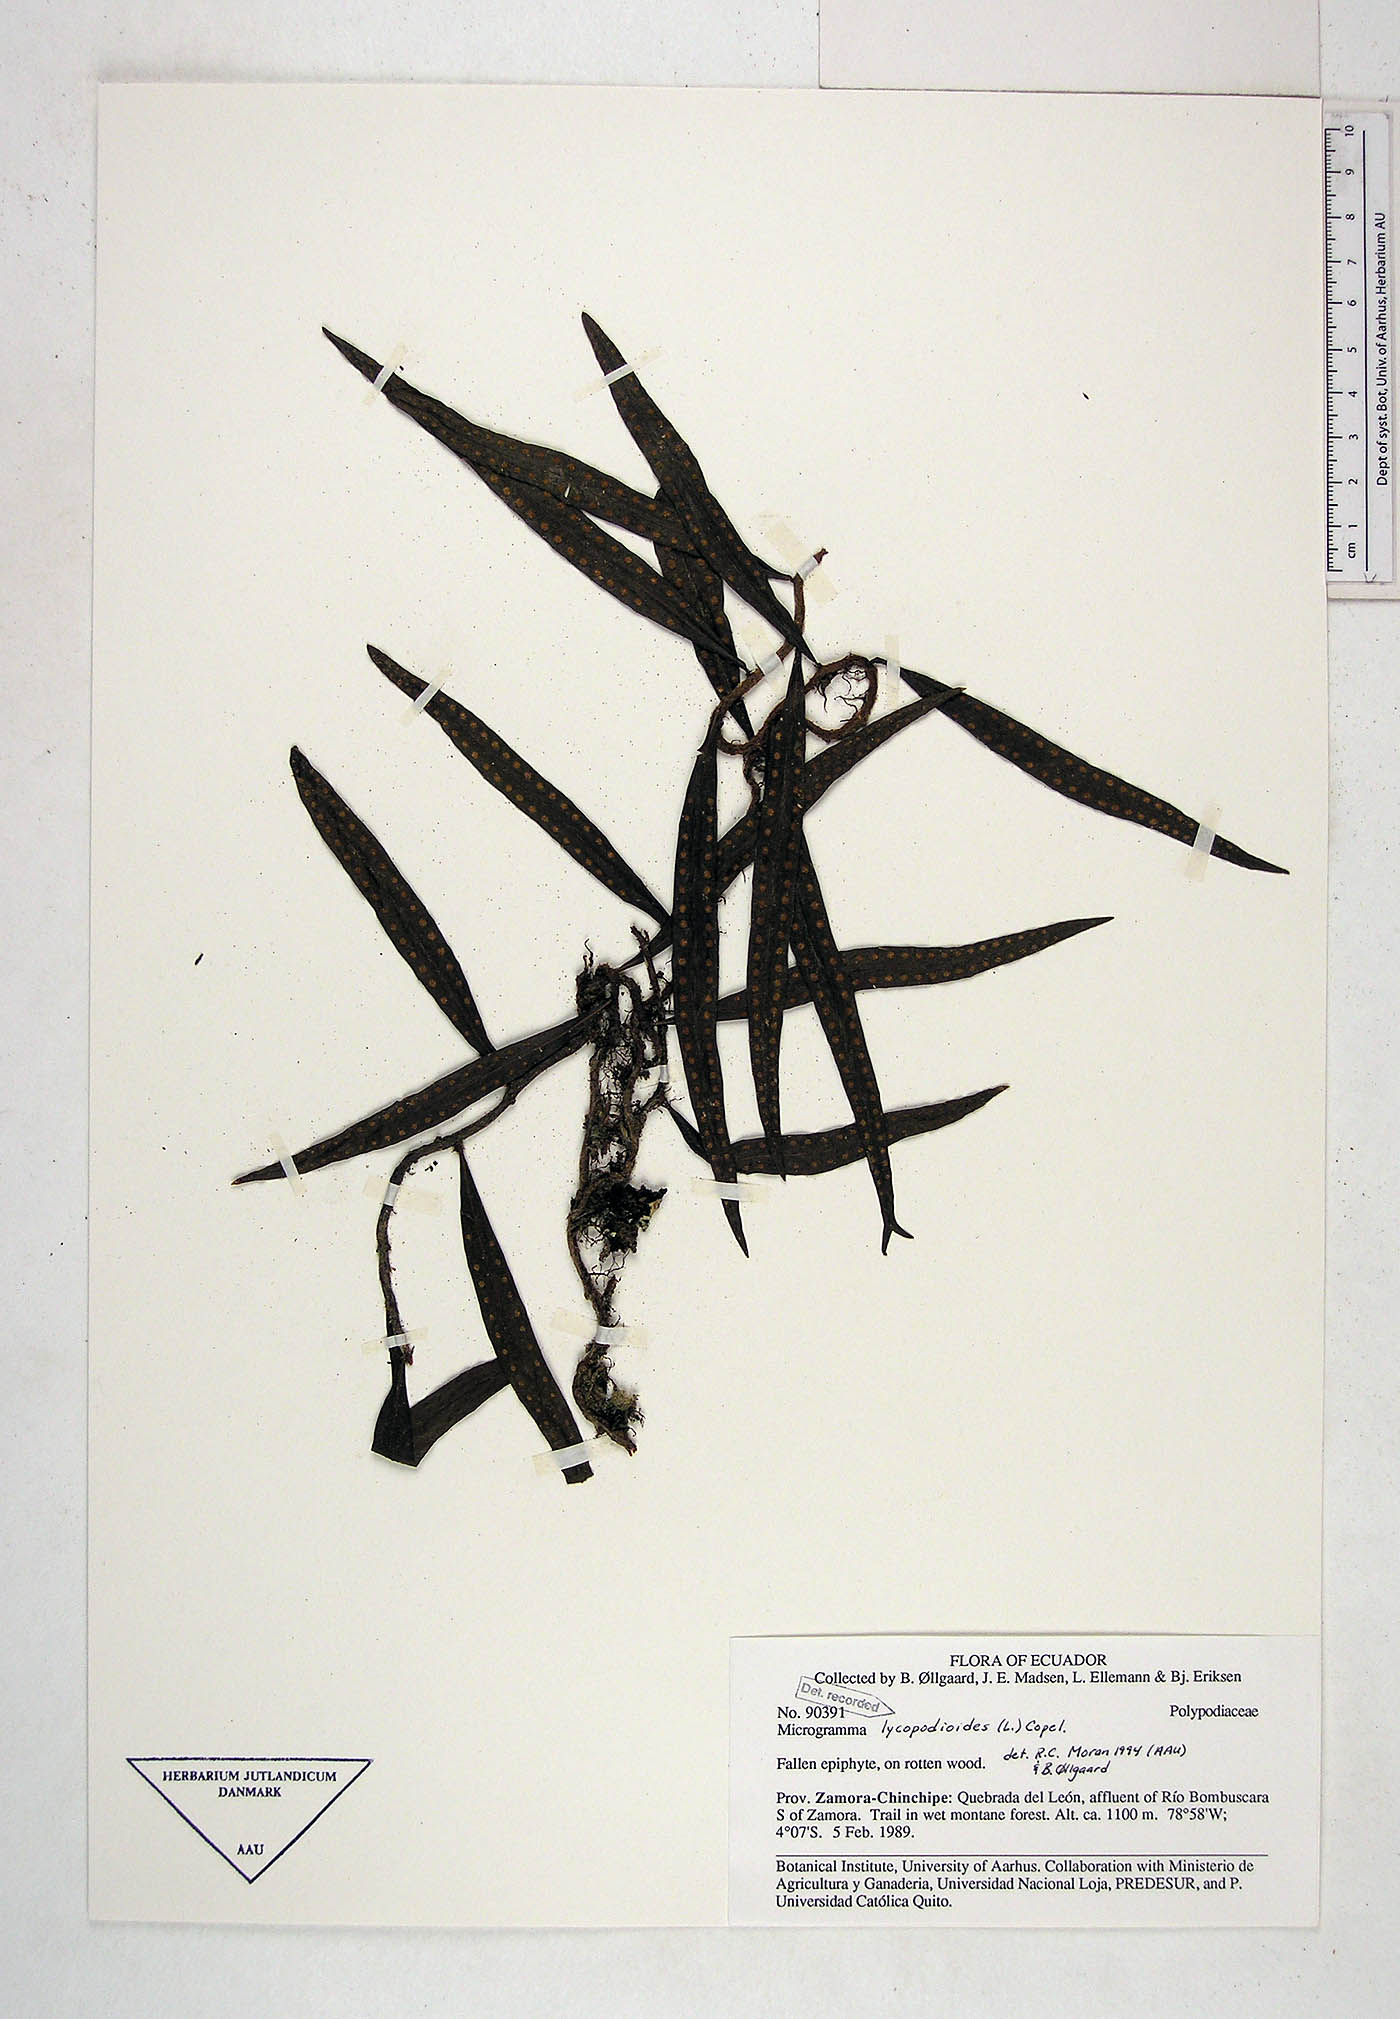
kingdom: Plantae
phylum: Tracheophyta
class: Polypodiopsida
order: Polypodiales
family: Polypodiaceae
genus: Microgramma
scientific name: Microgramma lycopodioides
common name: Bastard catclaw
